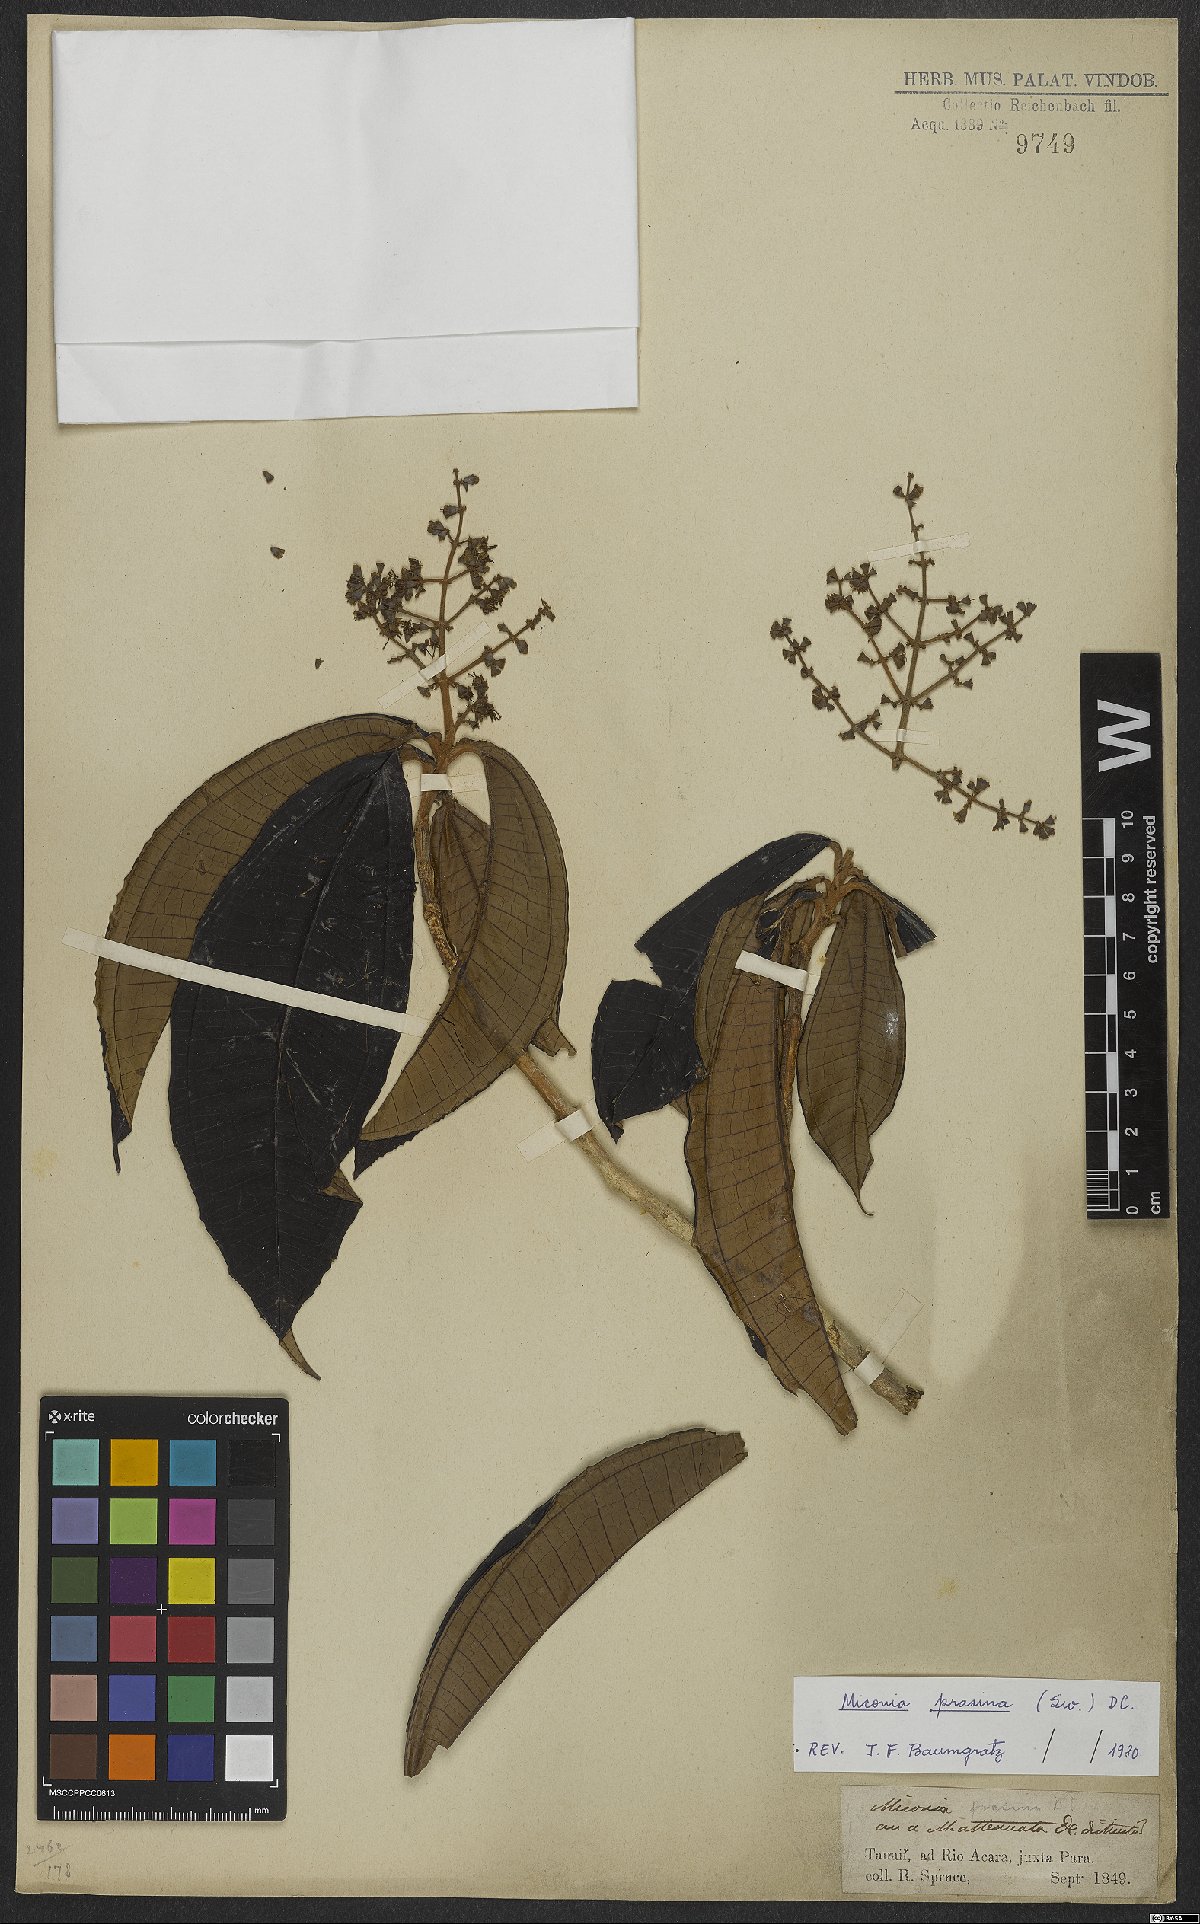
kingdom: Plantae
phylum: Tracheophyta
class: Magnoliopsida
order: Myrtales
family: Melastomataceae
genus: Miconia
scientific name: Miconia prasina
